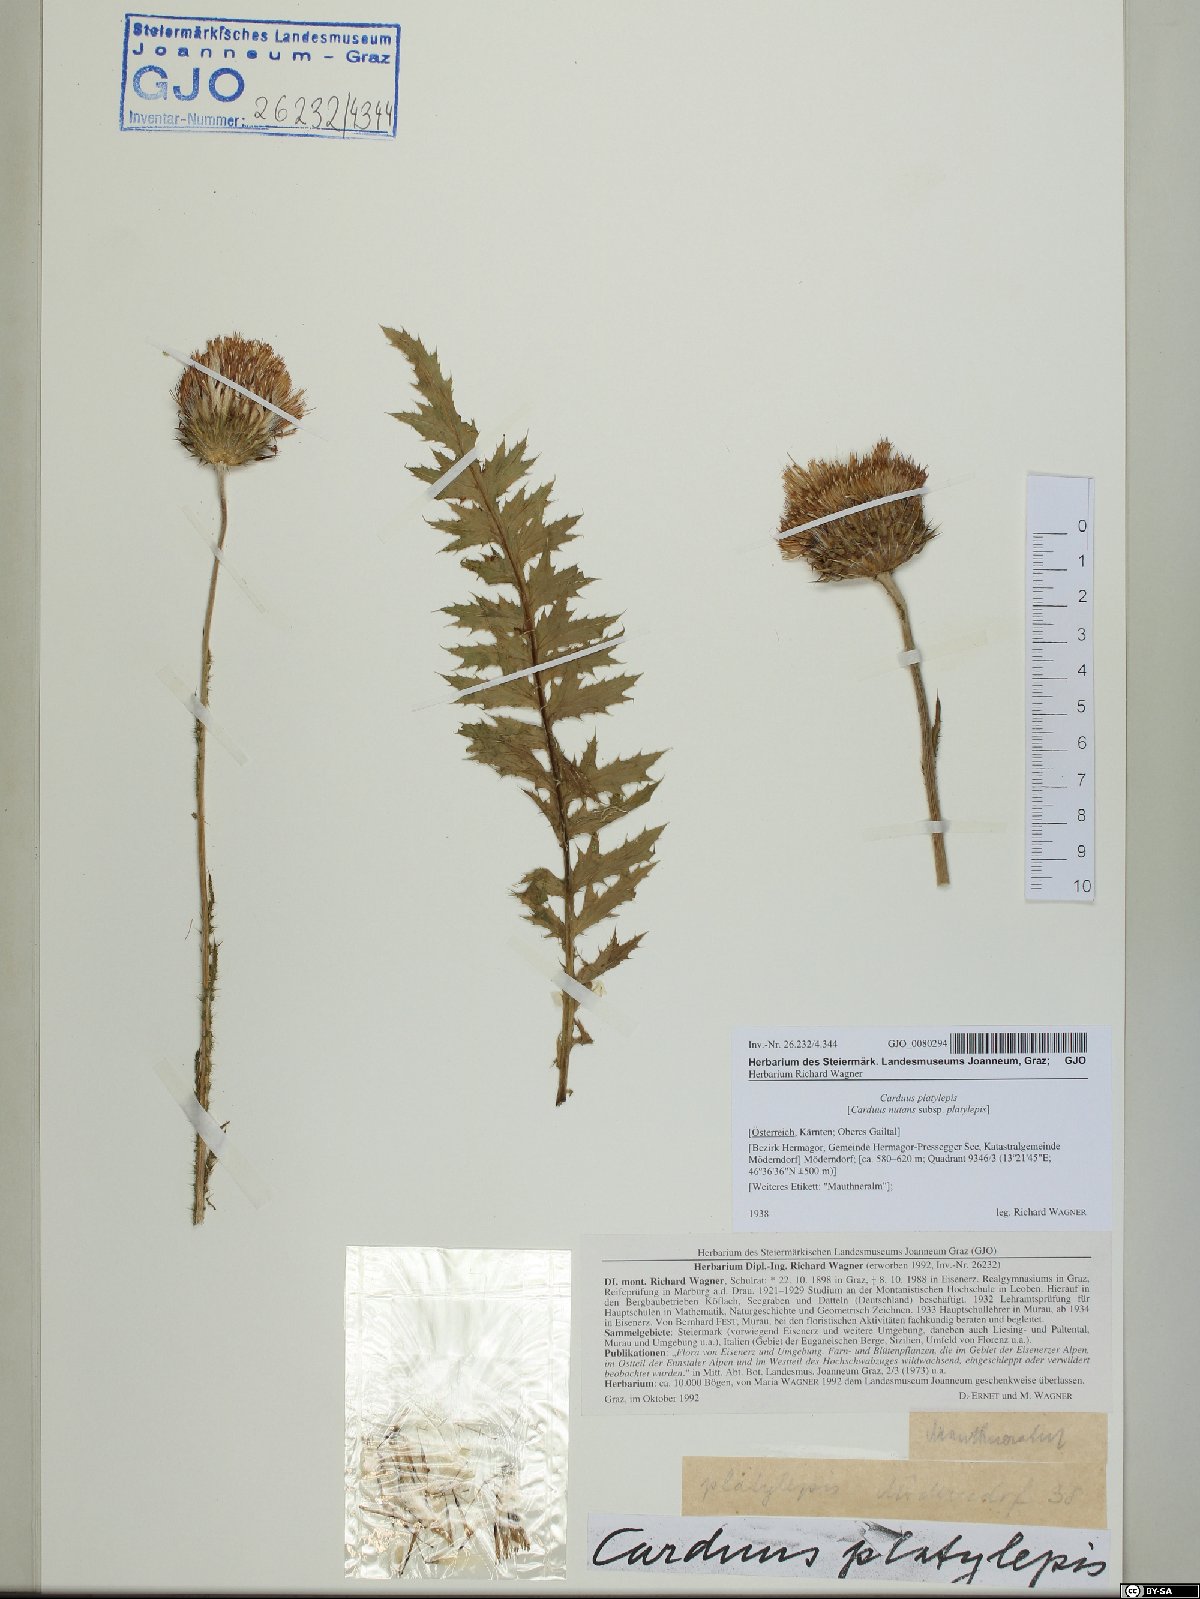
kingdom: Plantae
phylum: Tracheophyta
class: Magnoliopsida
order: Asterales
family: Asteraceae
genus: Carduus
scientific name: Carduus nutans
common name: Musk thistle
